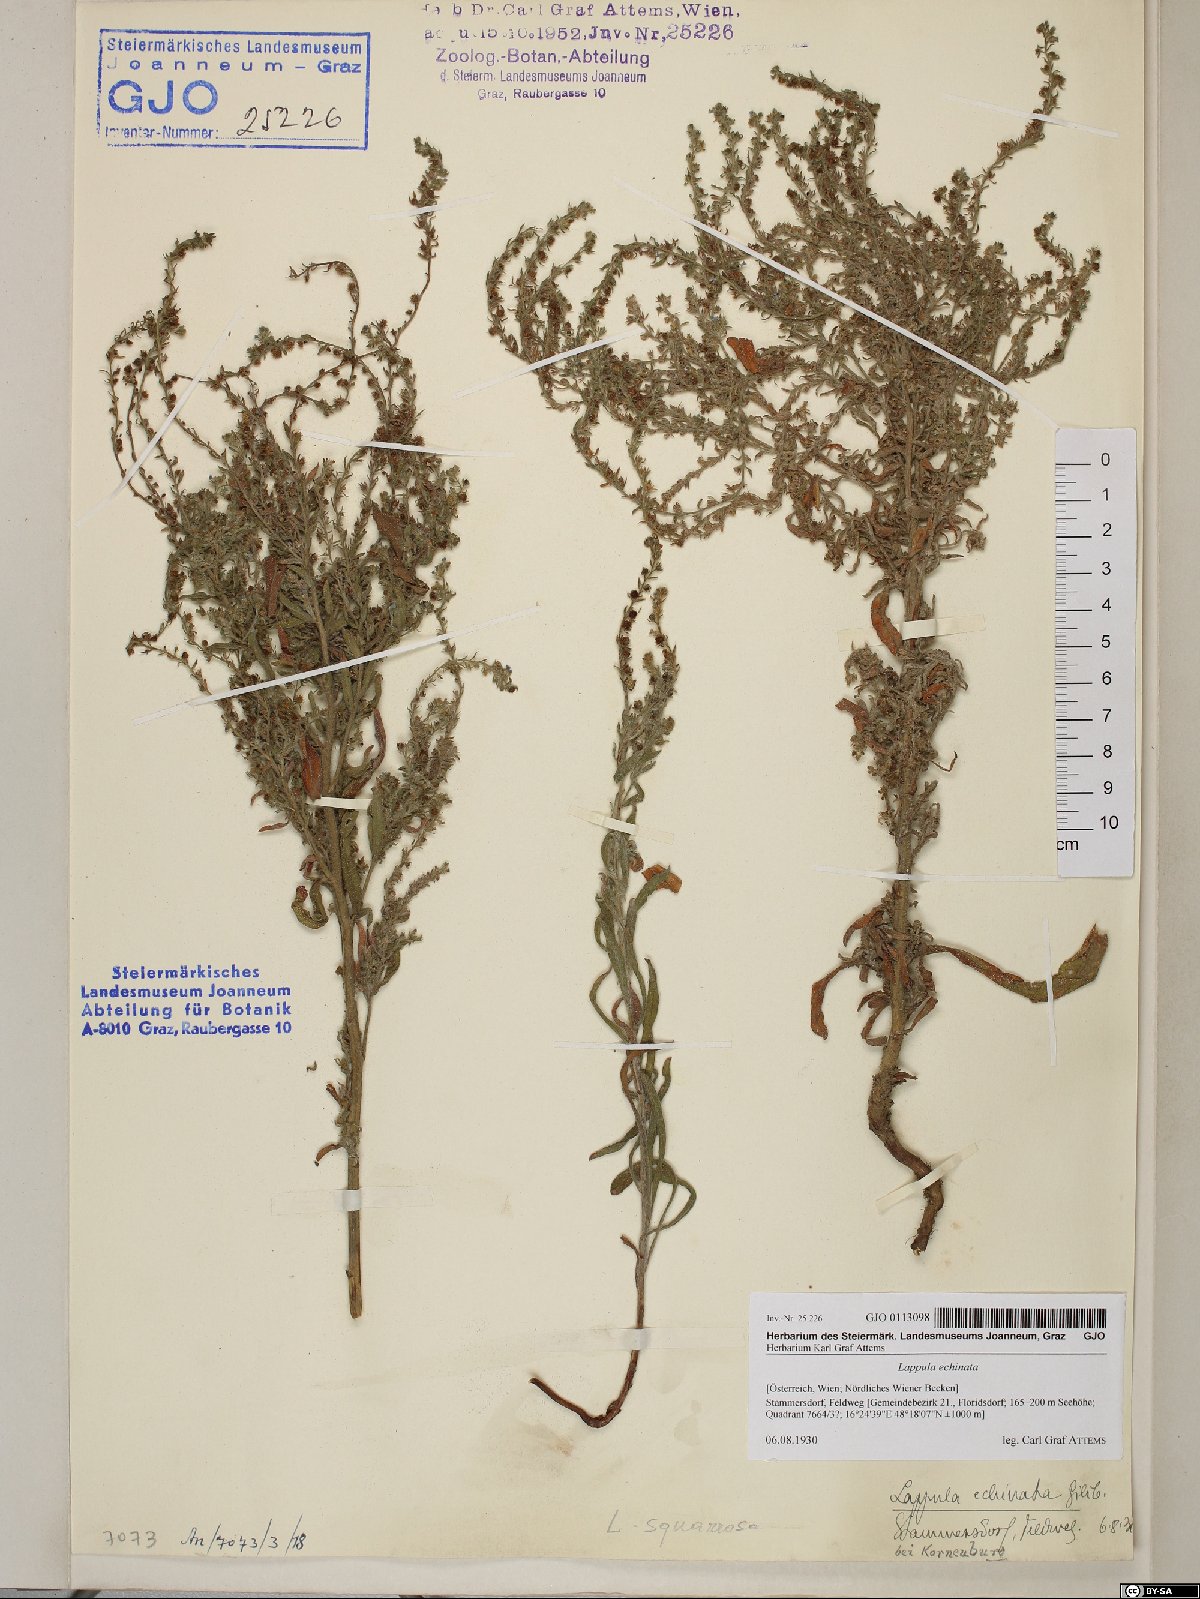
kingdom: Plantae
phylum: Tracheophyta
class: Magnoliopsida
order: Boraginales
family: Boraginaceae
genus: Lappula
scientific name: Lappula squarrosa
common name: European stickseed
